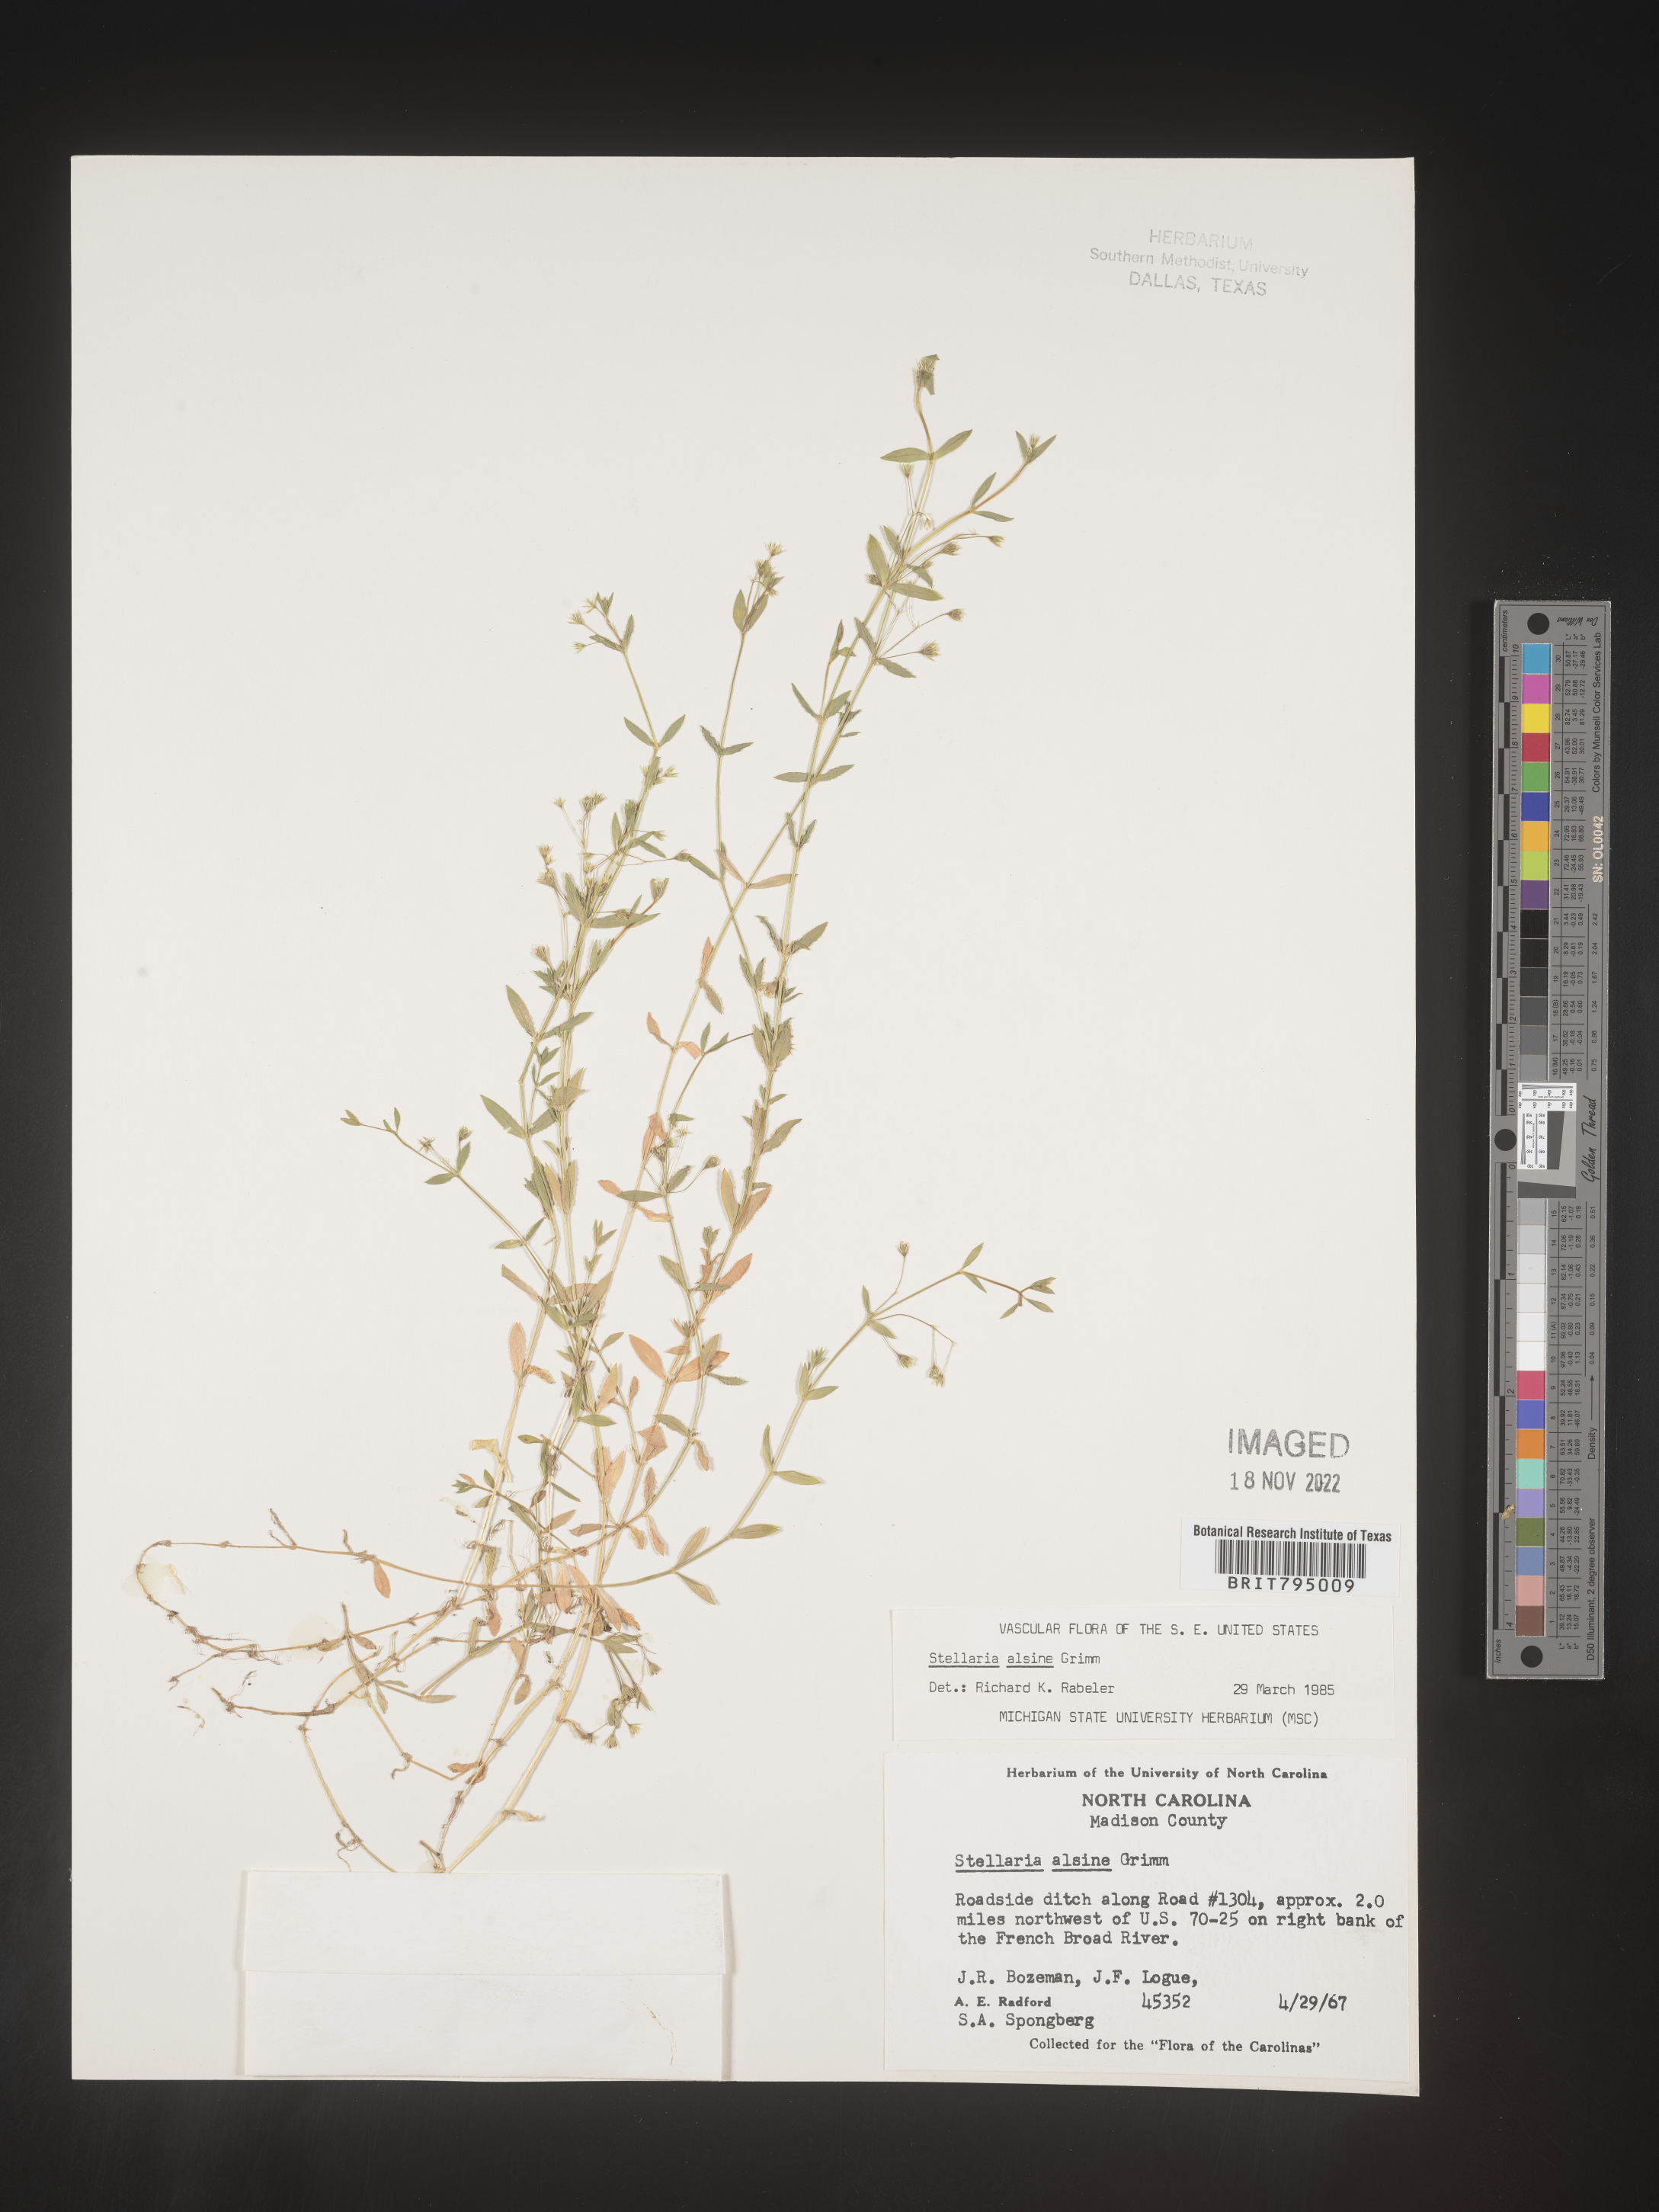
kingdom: Plantae
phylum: Tracheophyta
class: Magnoliopsida
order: Caryophyllales
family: Caryophyllaceae
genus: Stellaria
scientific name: Stellaria alsine
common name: Bog stitchwort
